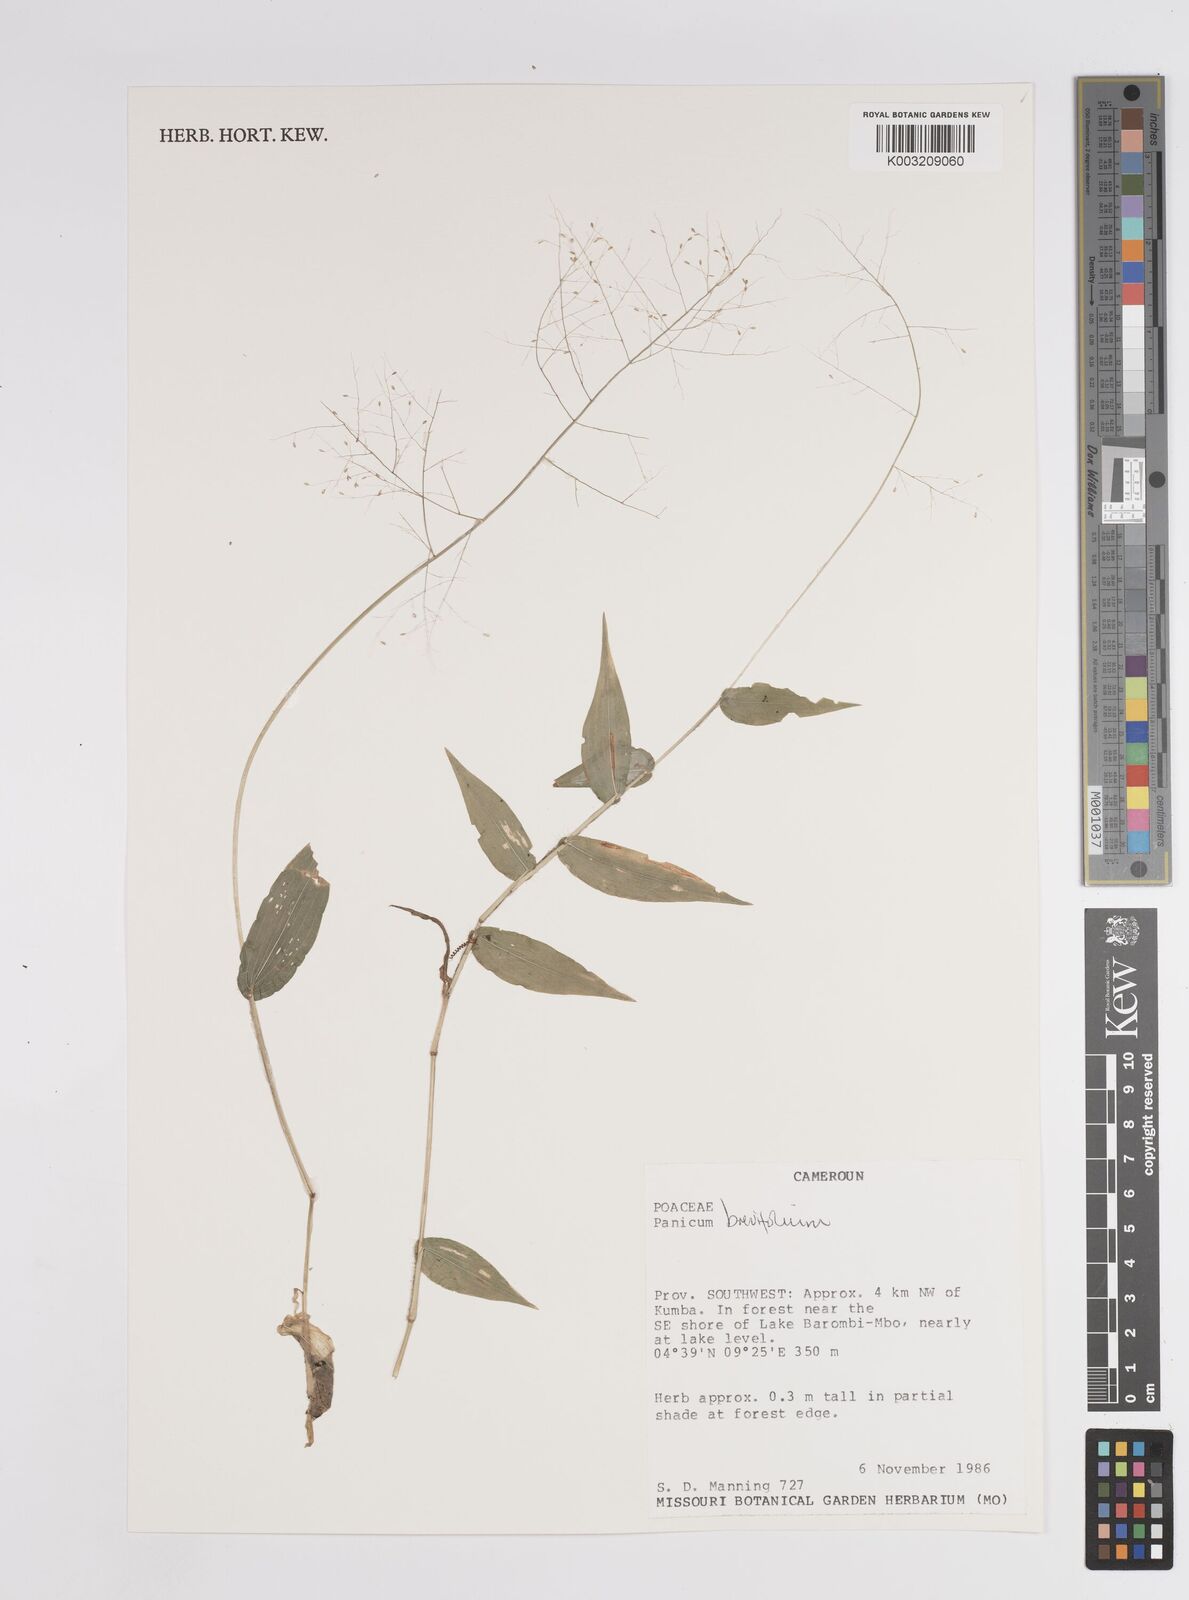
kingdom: Plantae
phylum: Tracheophyta
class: Liliopsida
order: Poales
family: Poaceae
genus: Panicum
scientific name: Panicum brevifolium
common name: Shortleaf panic grass
